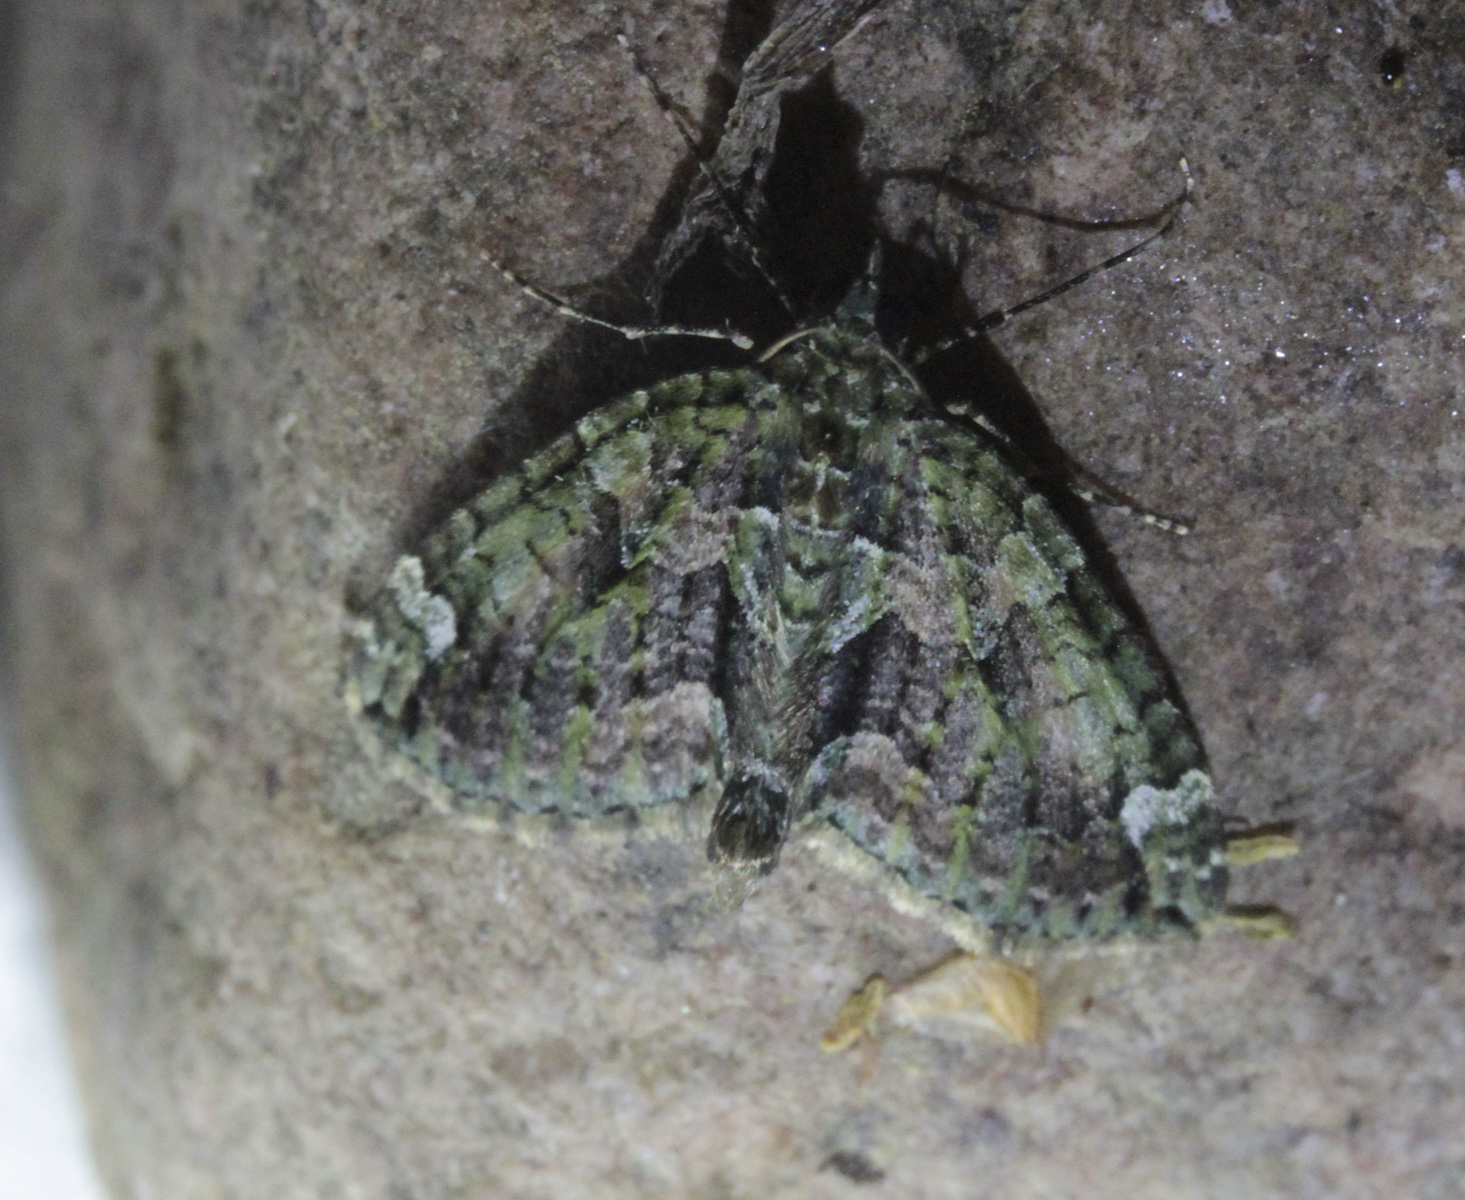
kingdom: Animalia
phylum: Arthropoda
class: Insecta
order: Lepidoptera
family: Geometridae
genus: Chloroclysta
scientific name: Chloroclysta siterata
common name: Red-green carpet
